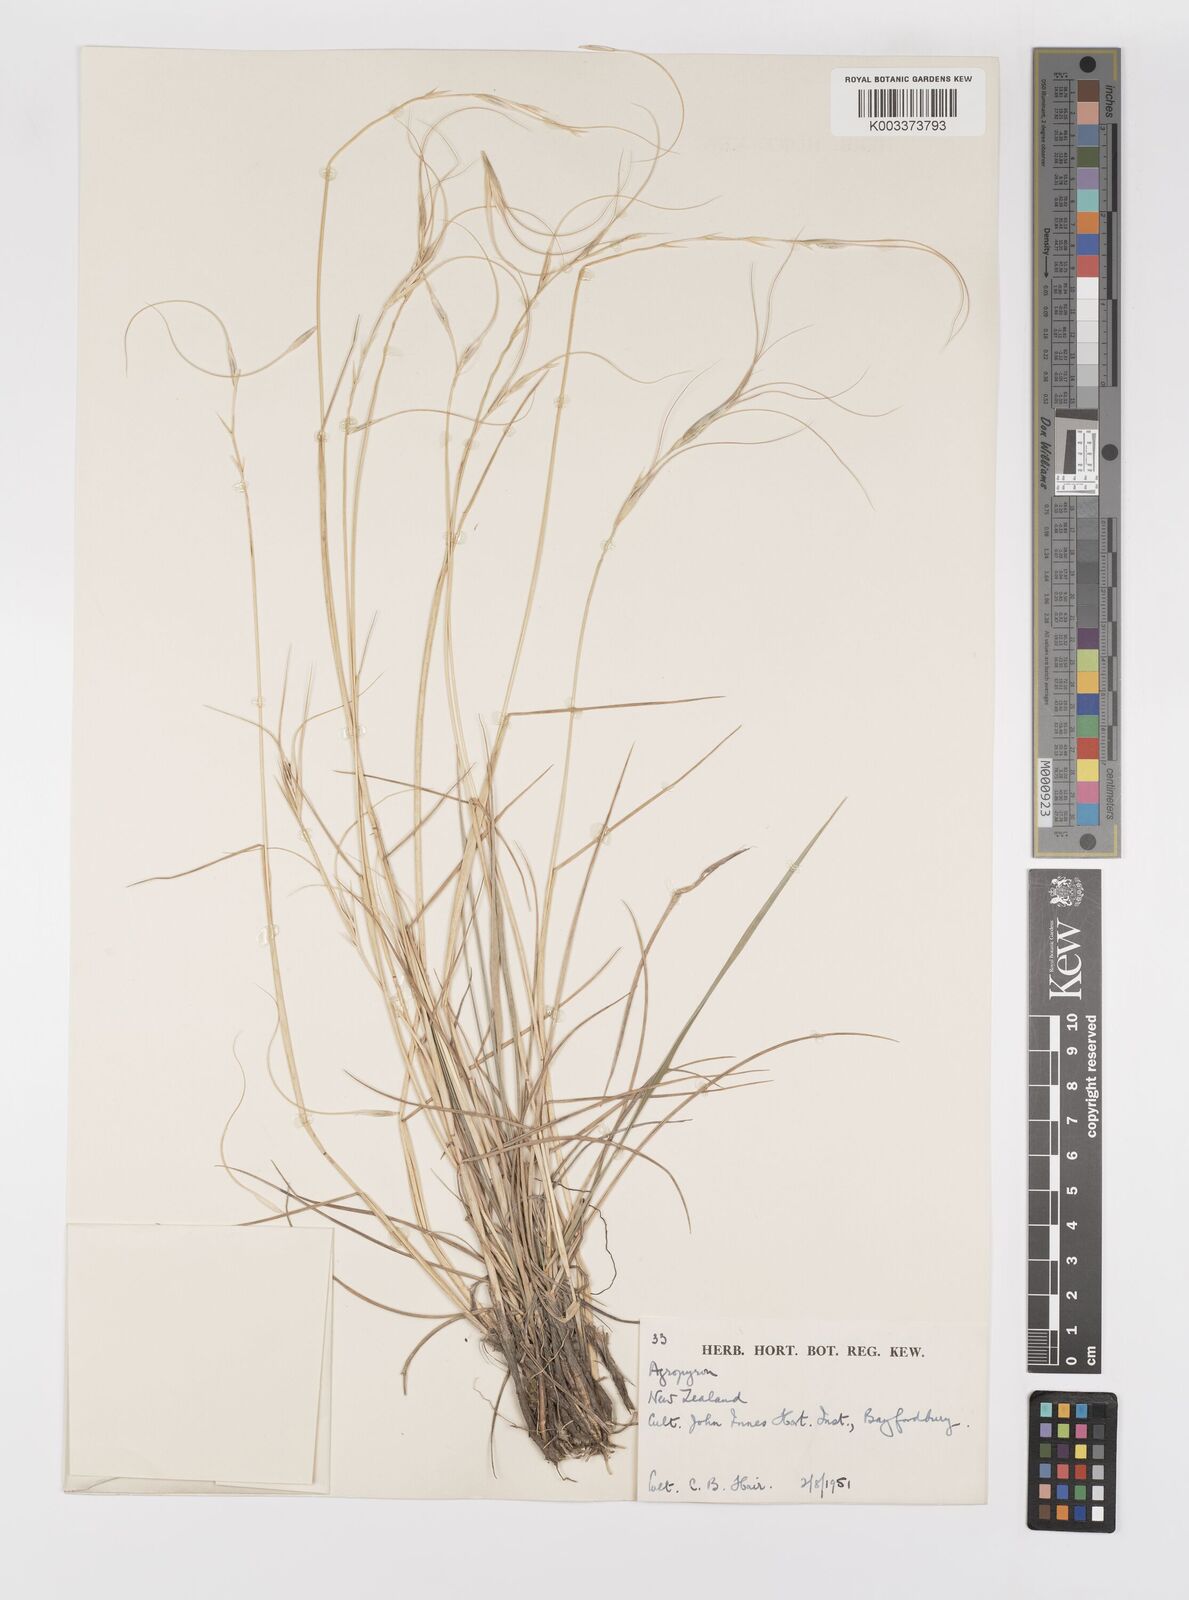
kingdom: Plantae
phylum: Tracheophyta
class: Liliopsida
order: Poales
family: Poaceae
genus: Elymus
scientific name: Elymus
